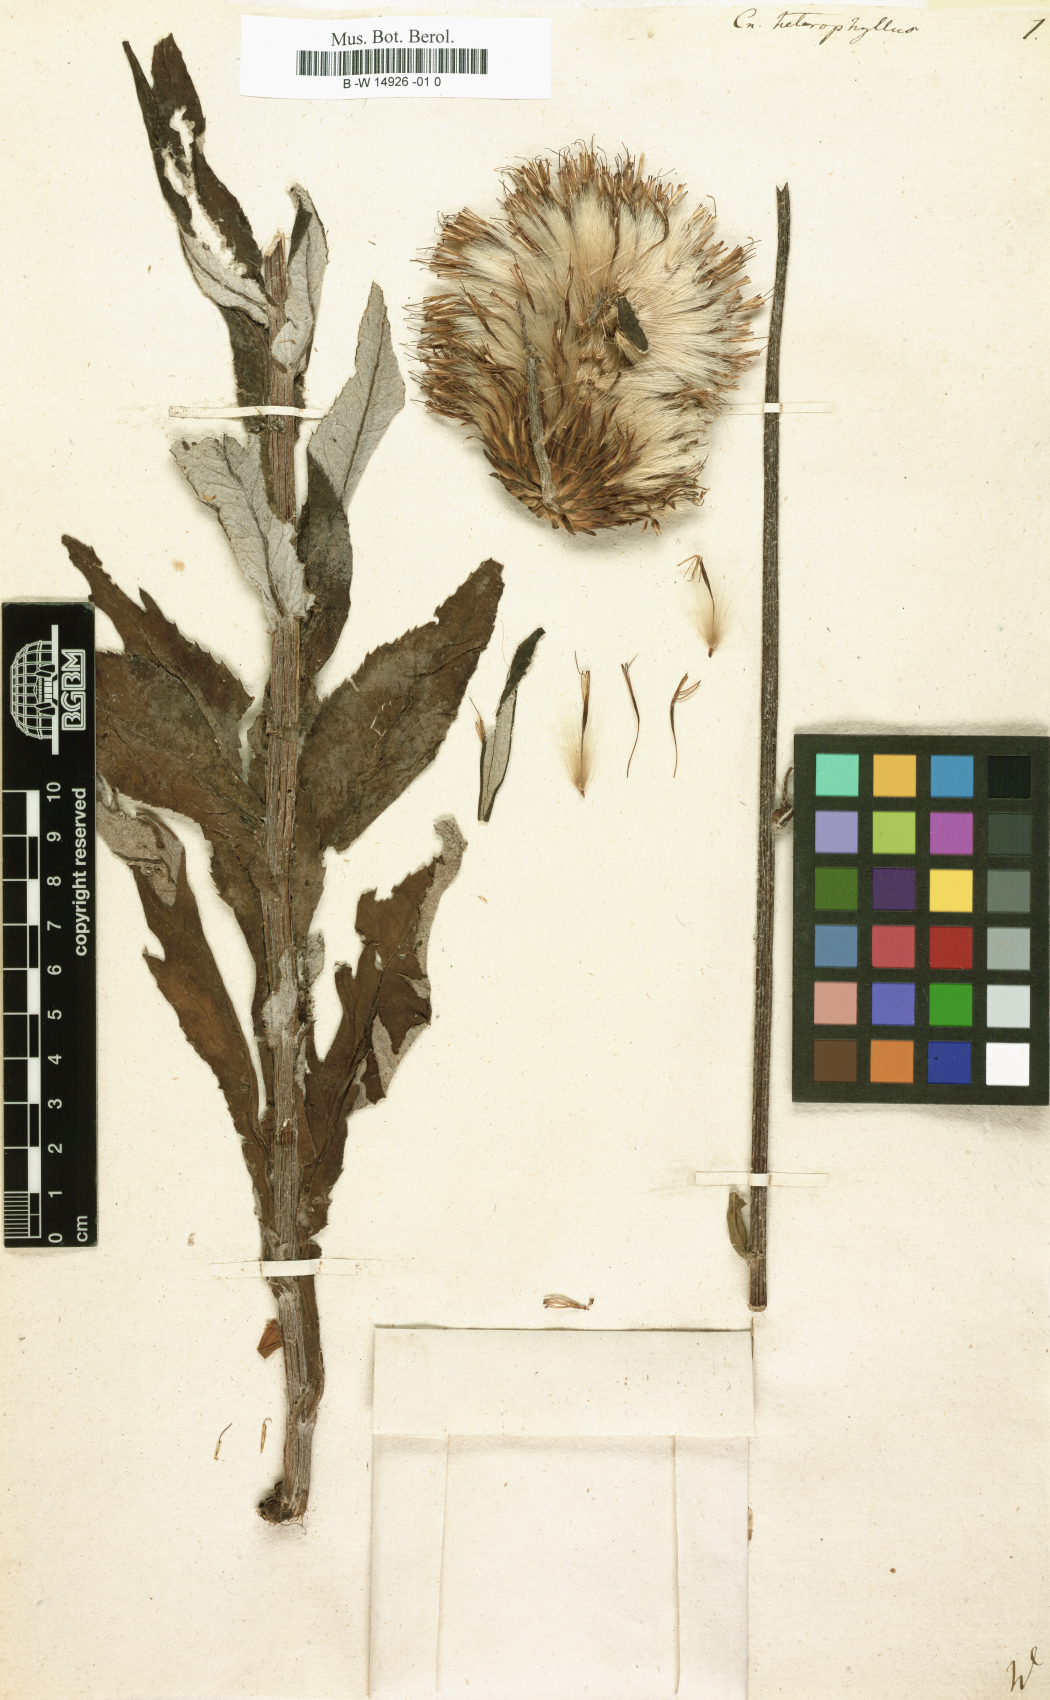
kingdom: Plantae
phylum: Tracheophyta
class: Magnoliopsida
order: Asterales
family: Asteraceae
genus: Cirsium
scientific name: Cirsium heterophyllum
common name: Melancholy thistle
